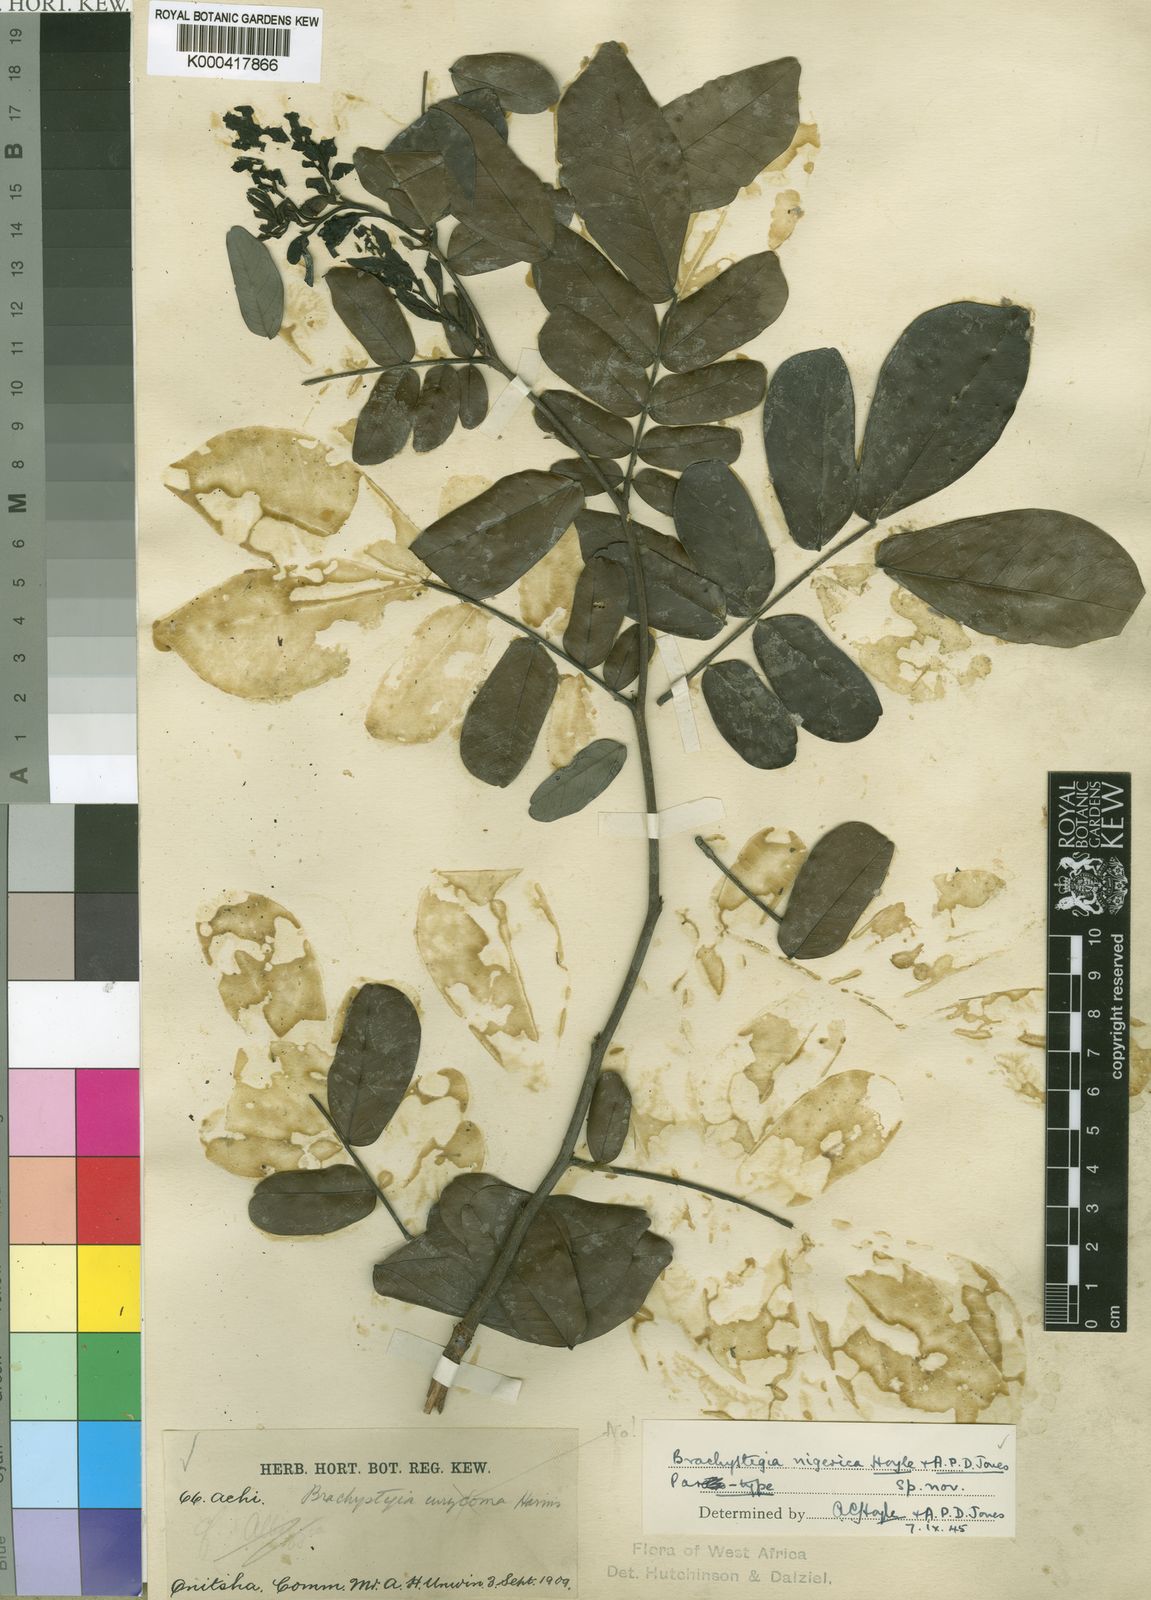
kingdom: Plantae
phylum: Tracheophyta
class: Magnoliopsida
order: Fabales
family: Fabaceae
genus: Brachystegia
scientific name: Brachystegia nigerica
